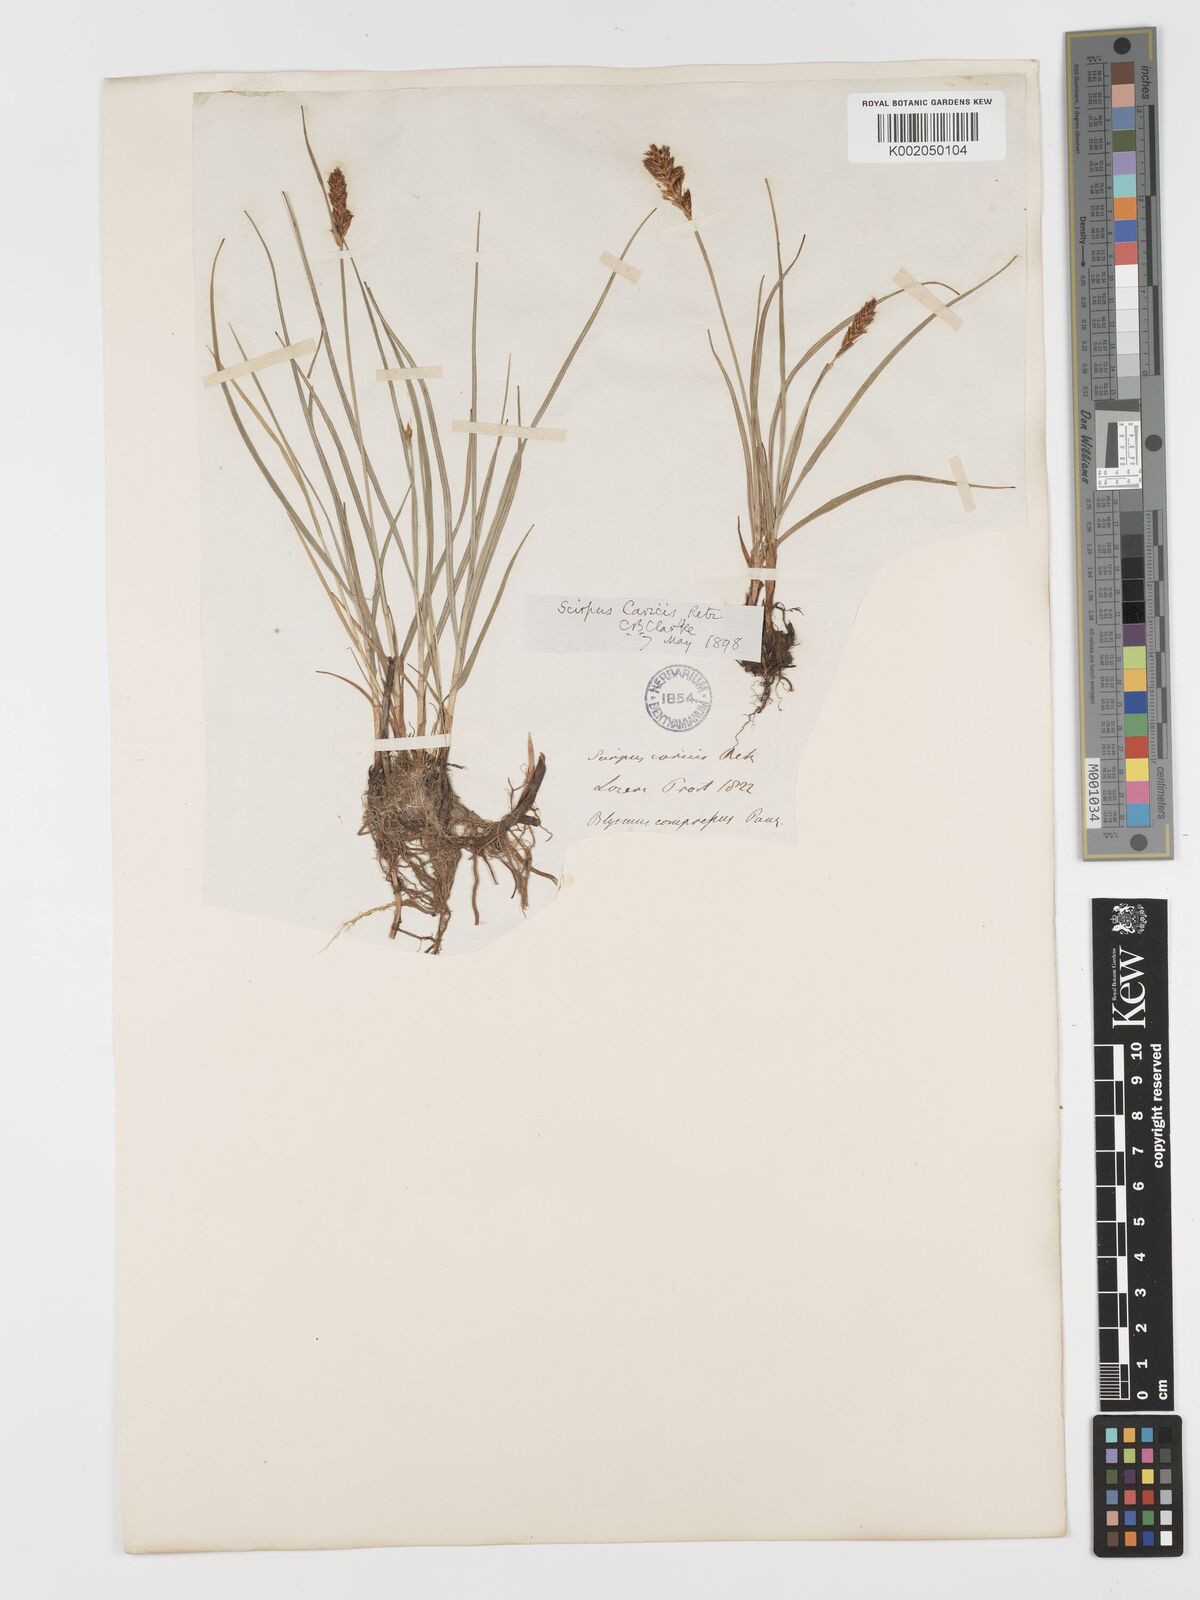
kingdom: Plantae
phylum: Tracheophyta
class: Liliopsida
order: Poales
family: Cyperaceae
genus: Blysmus
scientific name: Blysmus compressus
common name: Flat-sedge
